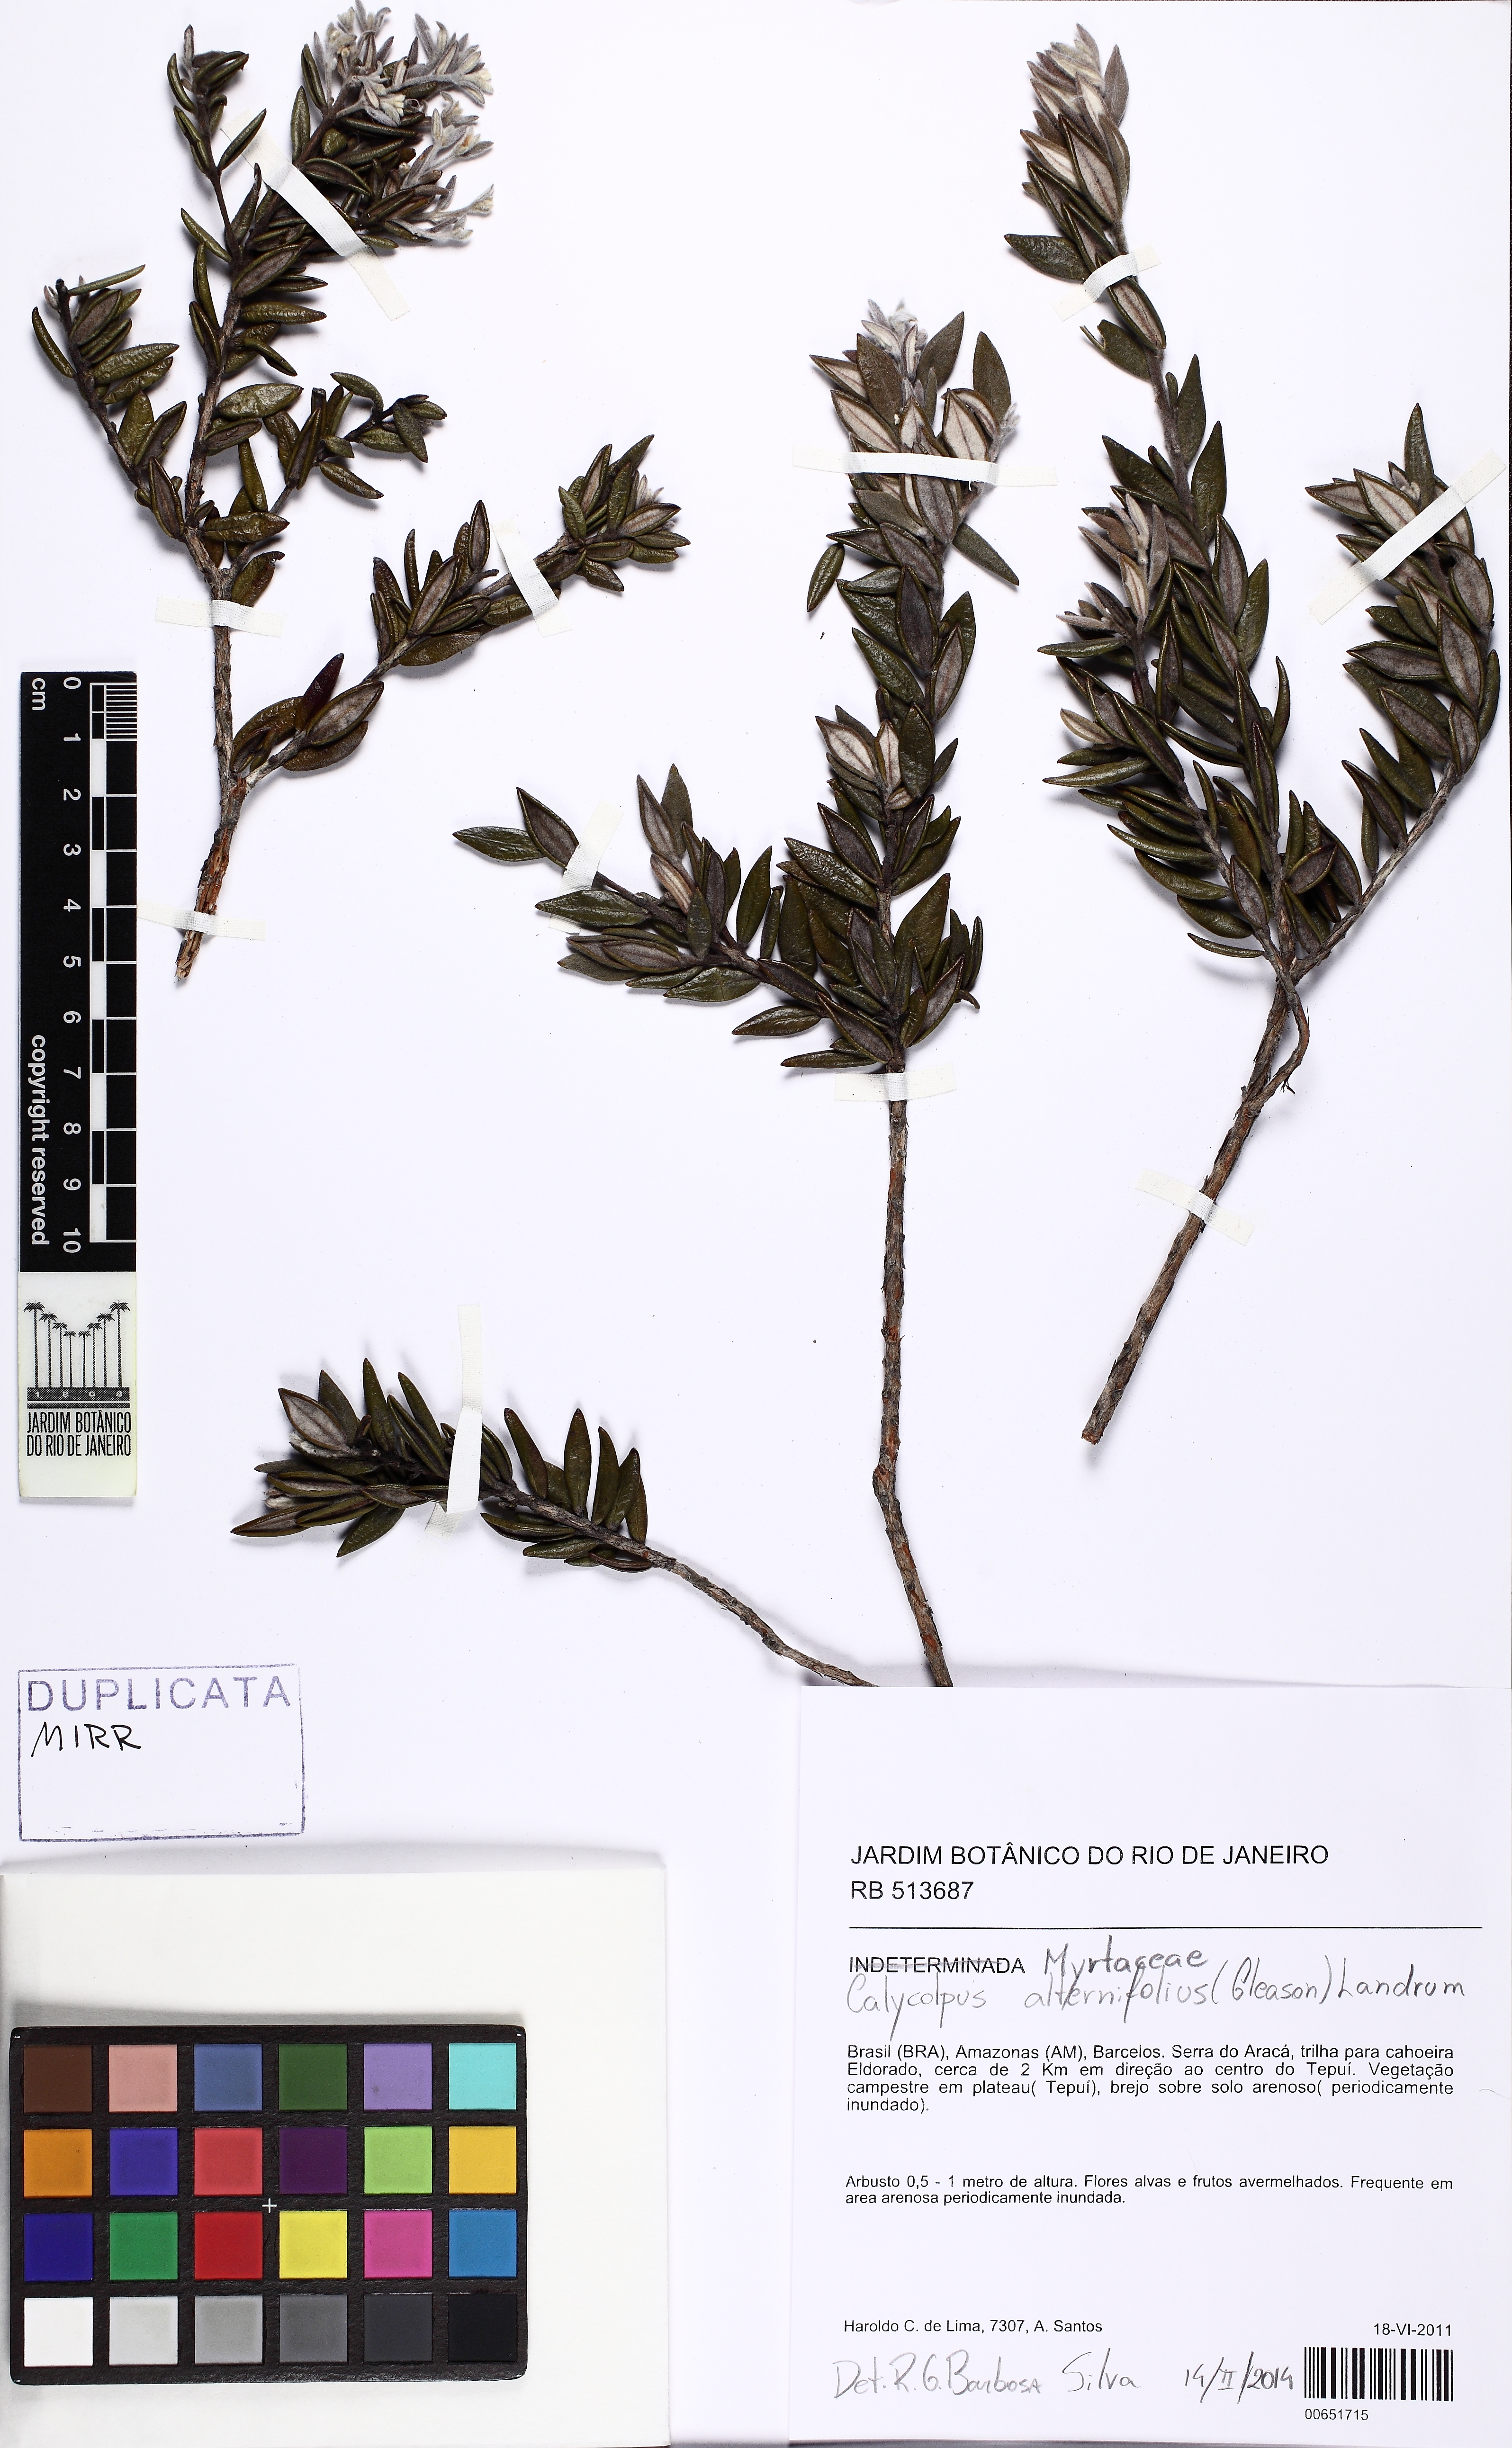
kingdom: Plantae
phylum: Tracheophyta
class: Magnoliopsida
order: Myrtales
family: Myrtaceae
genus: Calycolpus
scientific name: Calycolpus alternifolius
